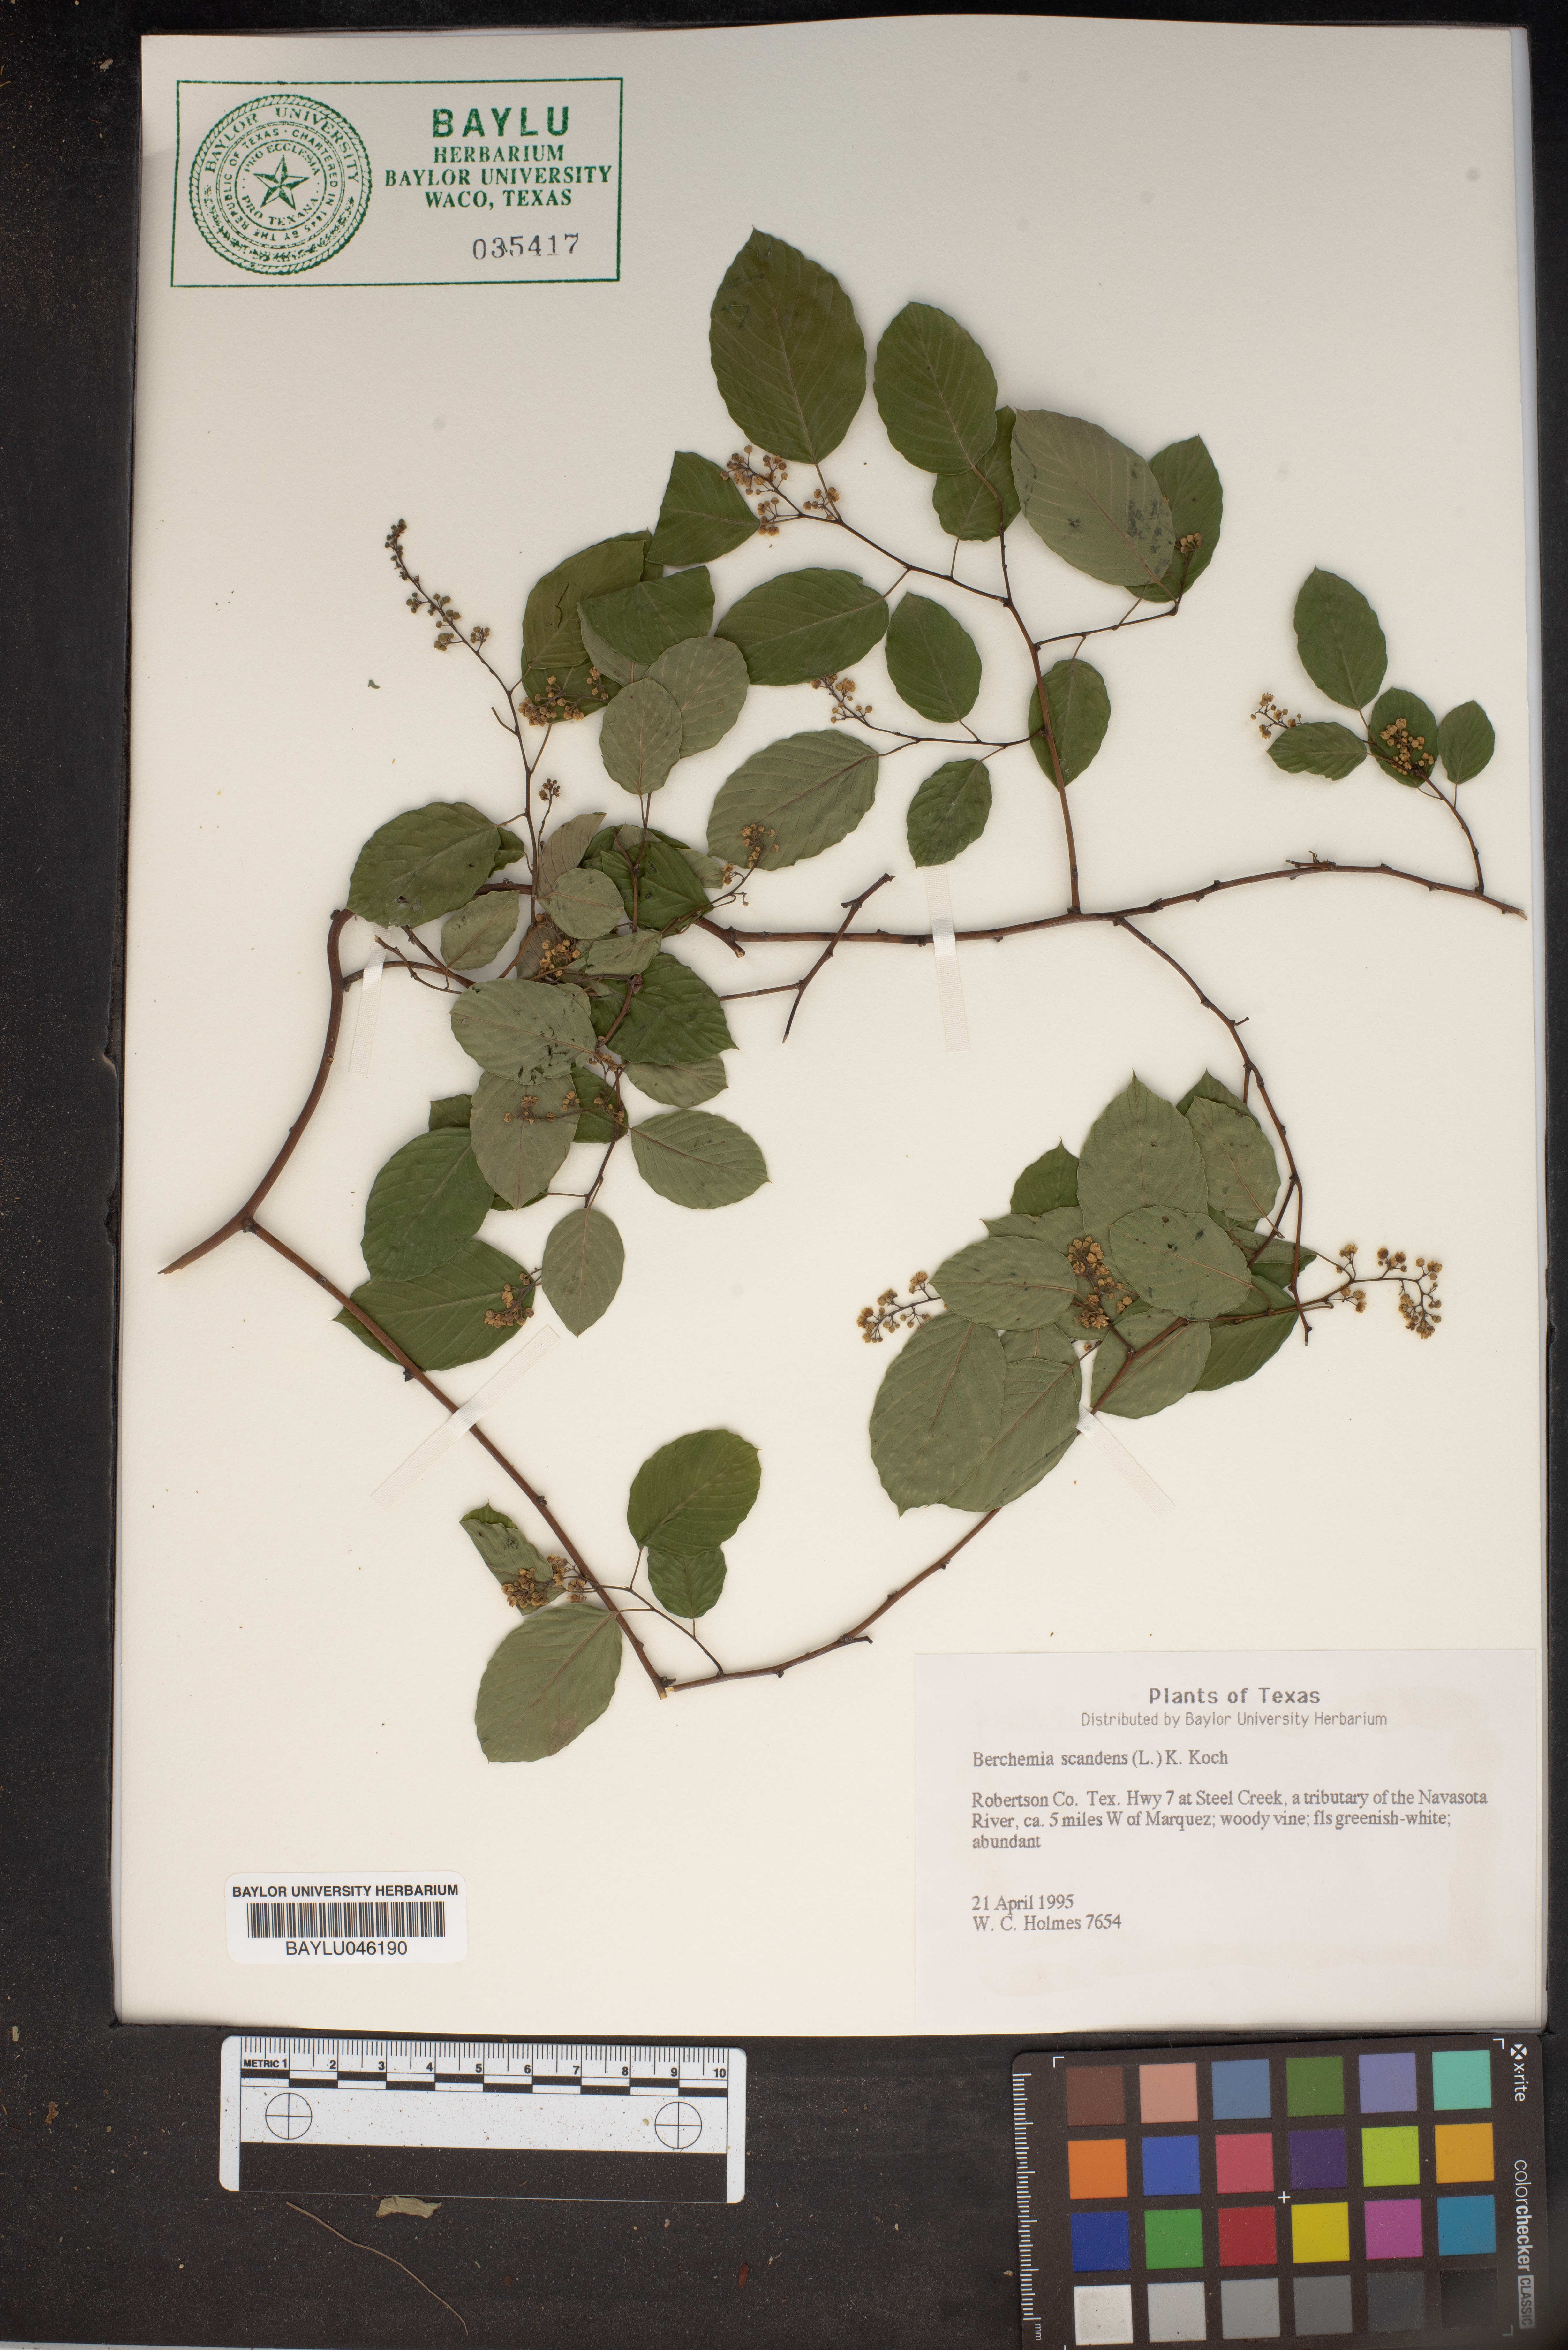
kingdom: Plantae
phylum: Tracheophyta
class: Magnoliopsida
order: Rosales
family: Rhamnaceae
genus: Berchemia
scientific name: Berchemia scandens
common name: Supplejack
